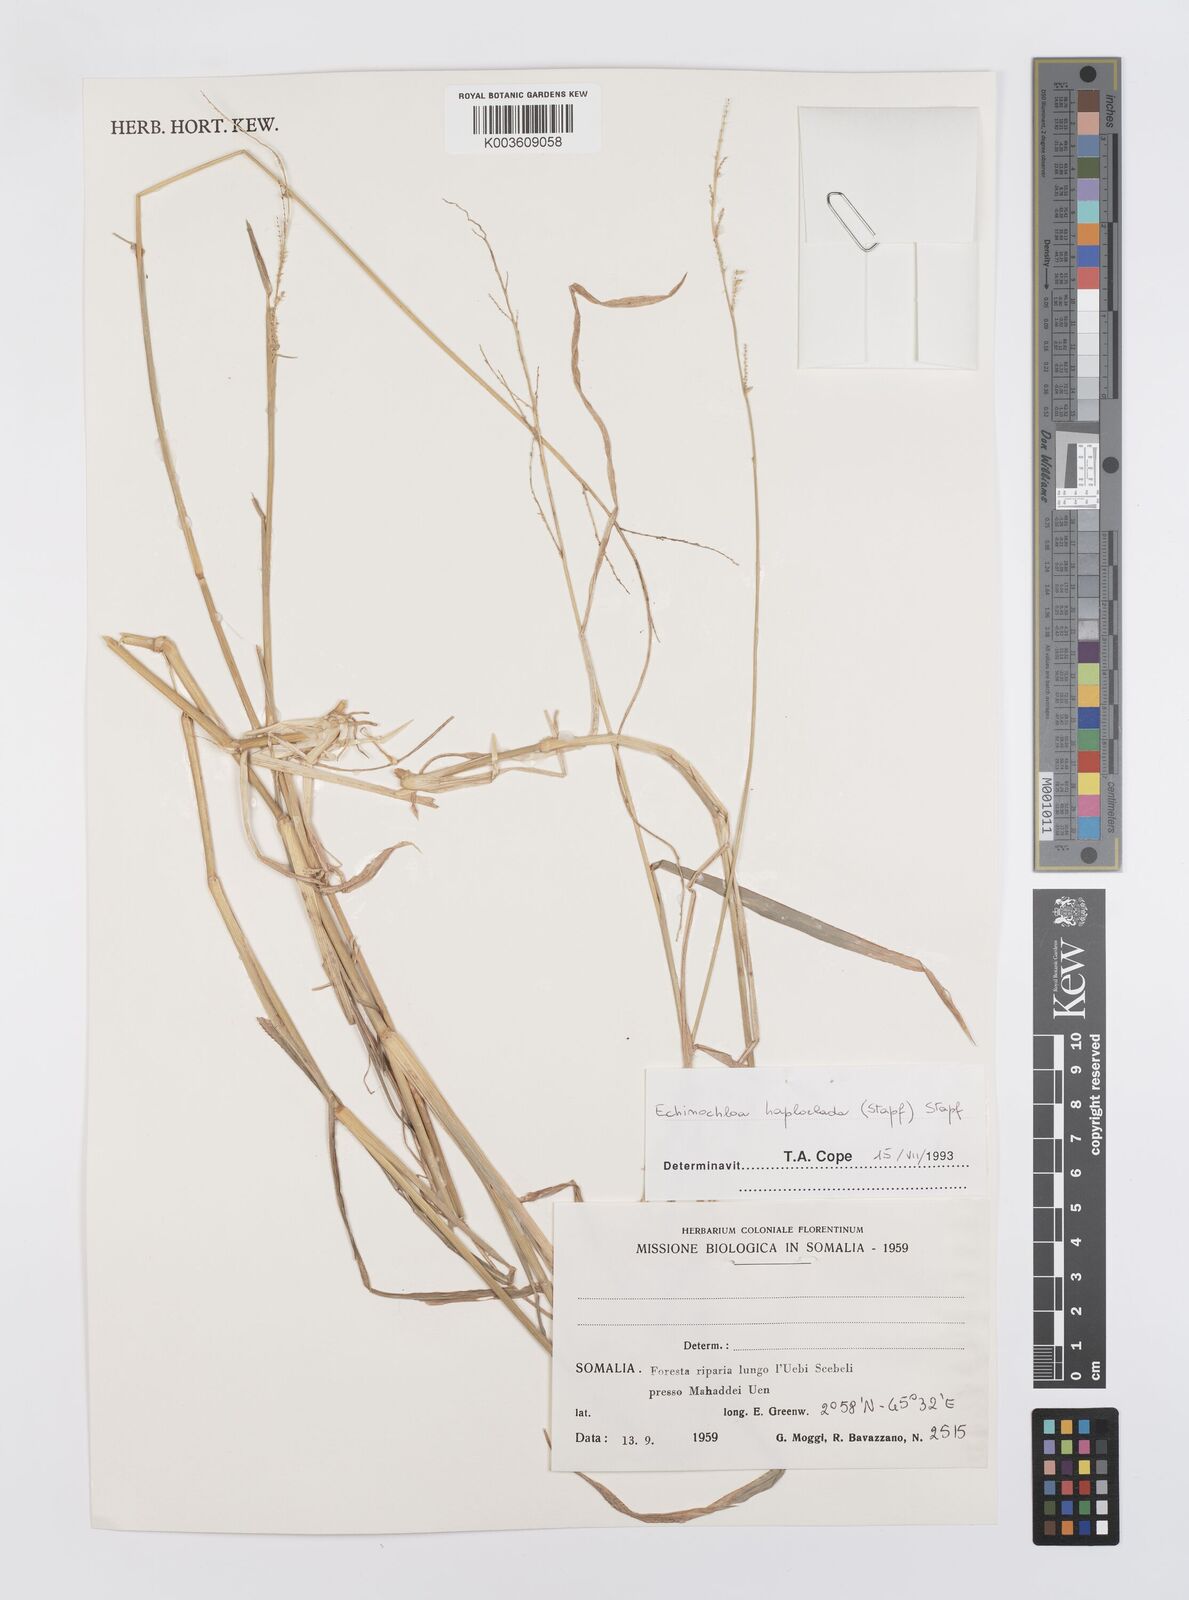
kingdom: Plantae
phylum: Tracheophyta
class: Liliopsida
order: Poales
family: Poaceae
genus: Echinochloa
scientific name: Echinochloa haploclada
